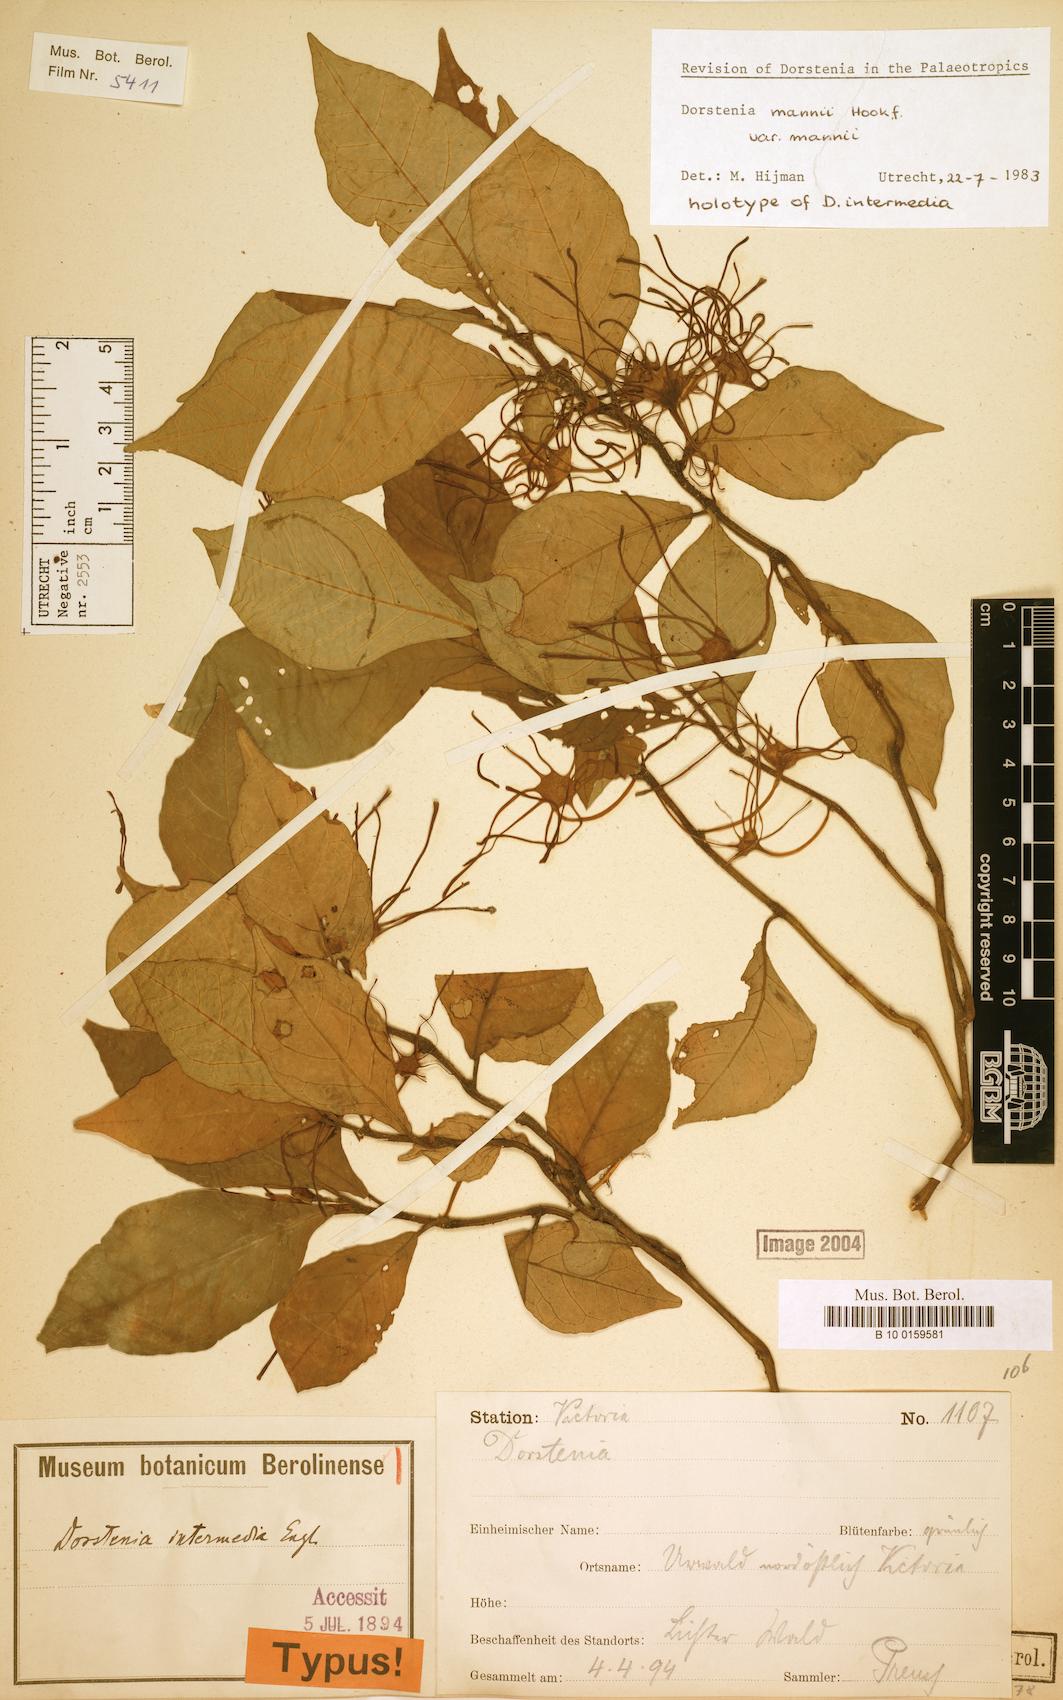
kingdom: Plantae
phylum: Tracheophyta
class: Magnoliopsida
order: Rosales
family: Moraceae
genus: Dorstenia
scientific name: Dorstenia mannii
